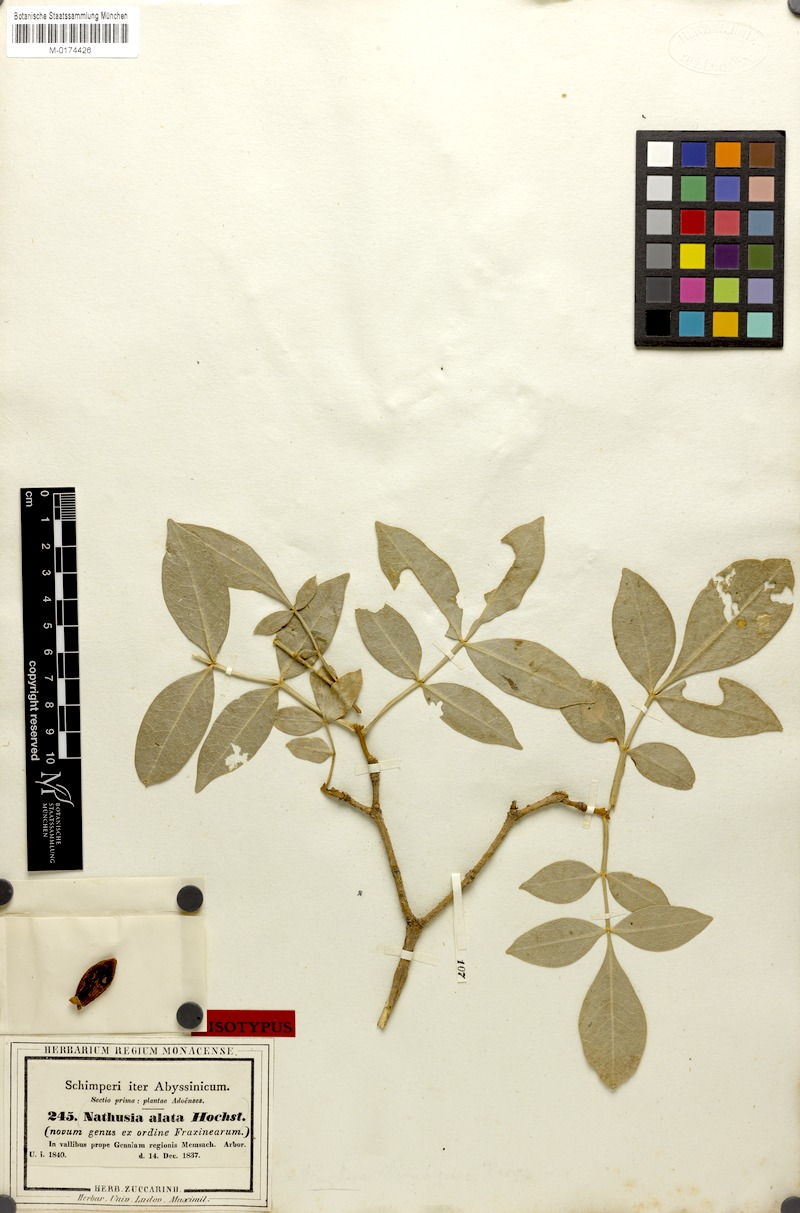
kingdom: Plantae
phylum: Tracheophyta
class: Magnoliopsida
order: Lamiales
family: Oleaceae
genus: Schrebera
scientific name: Schrebera alata
